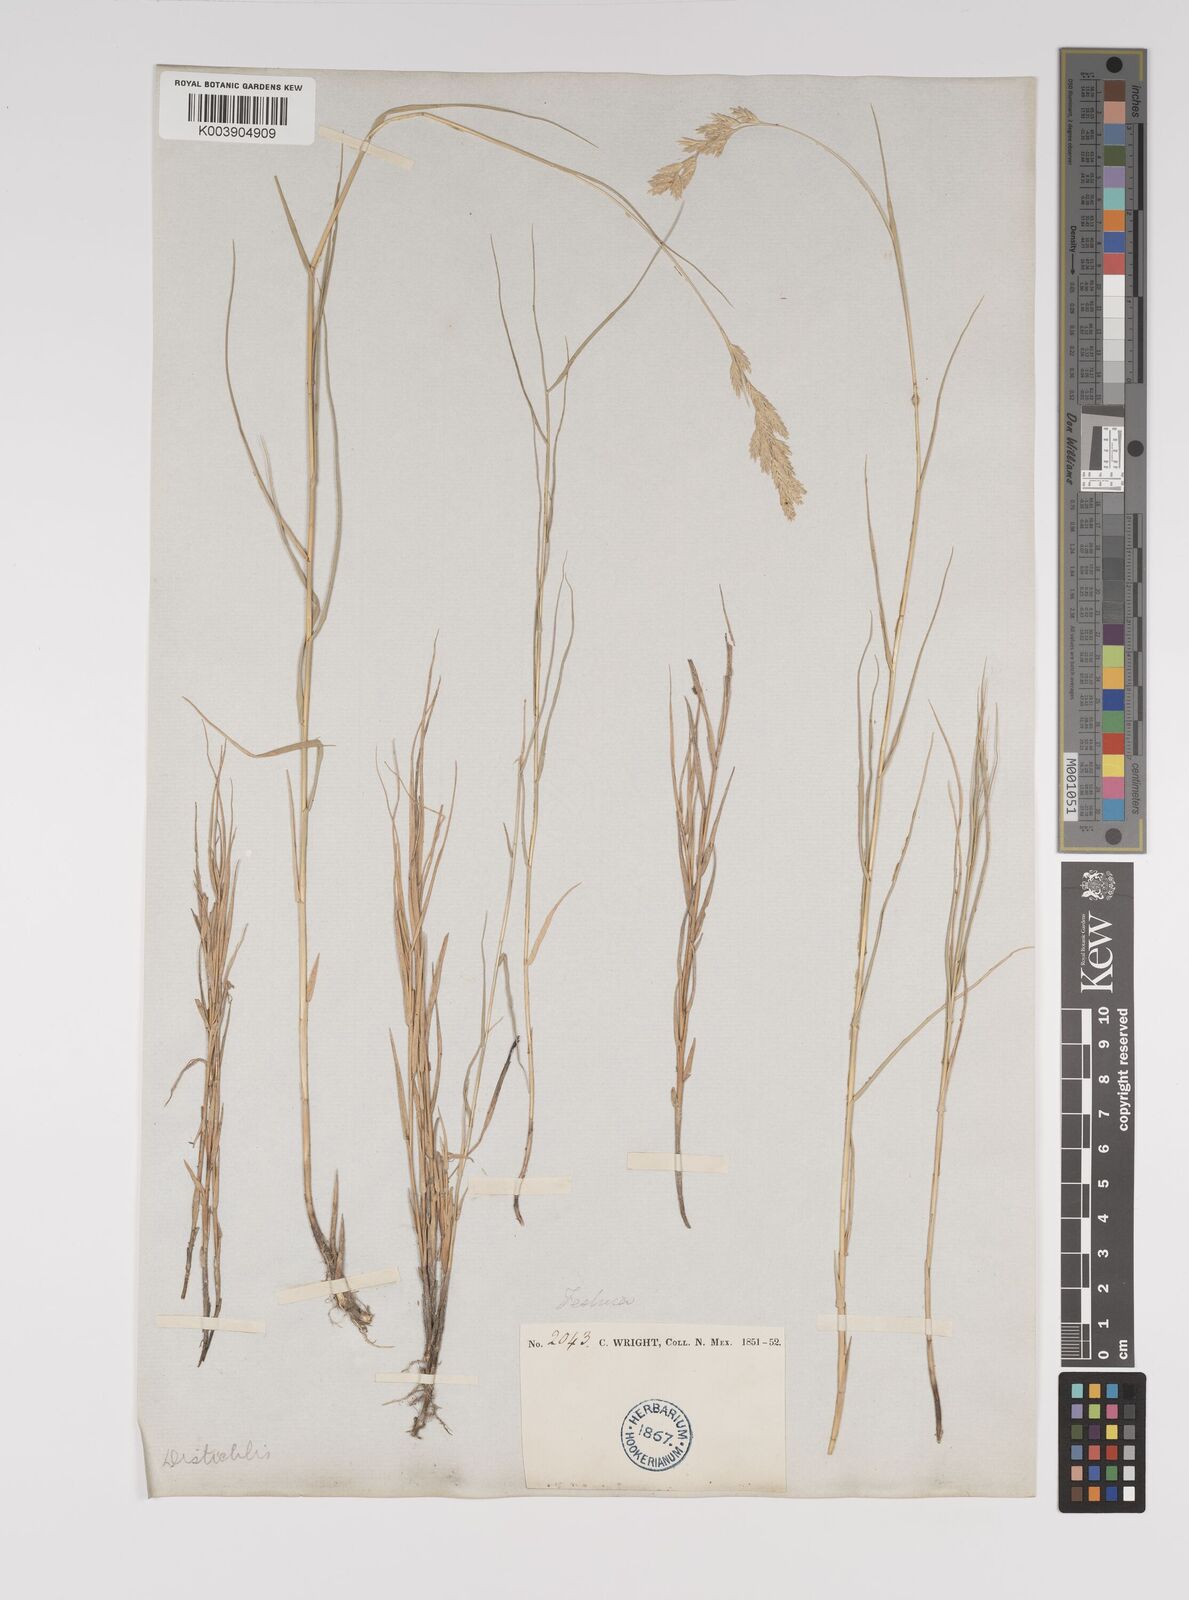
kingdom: Plantae
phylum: Tracheophyta
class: Liliopsida
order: Poales
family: Poaceae
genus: Distichlis
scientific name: Distichlis spicata
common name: Saltgrass
